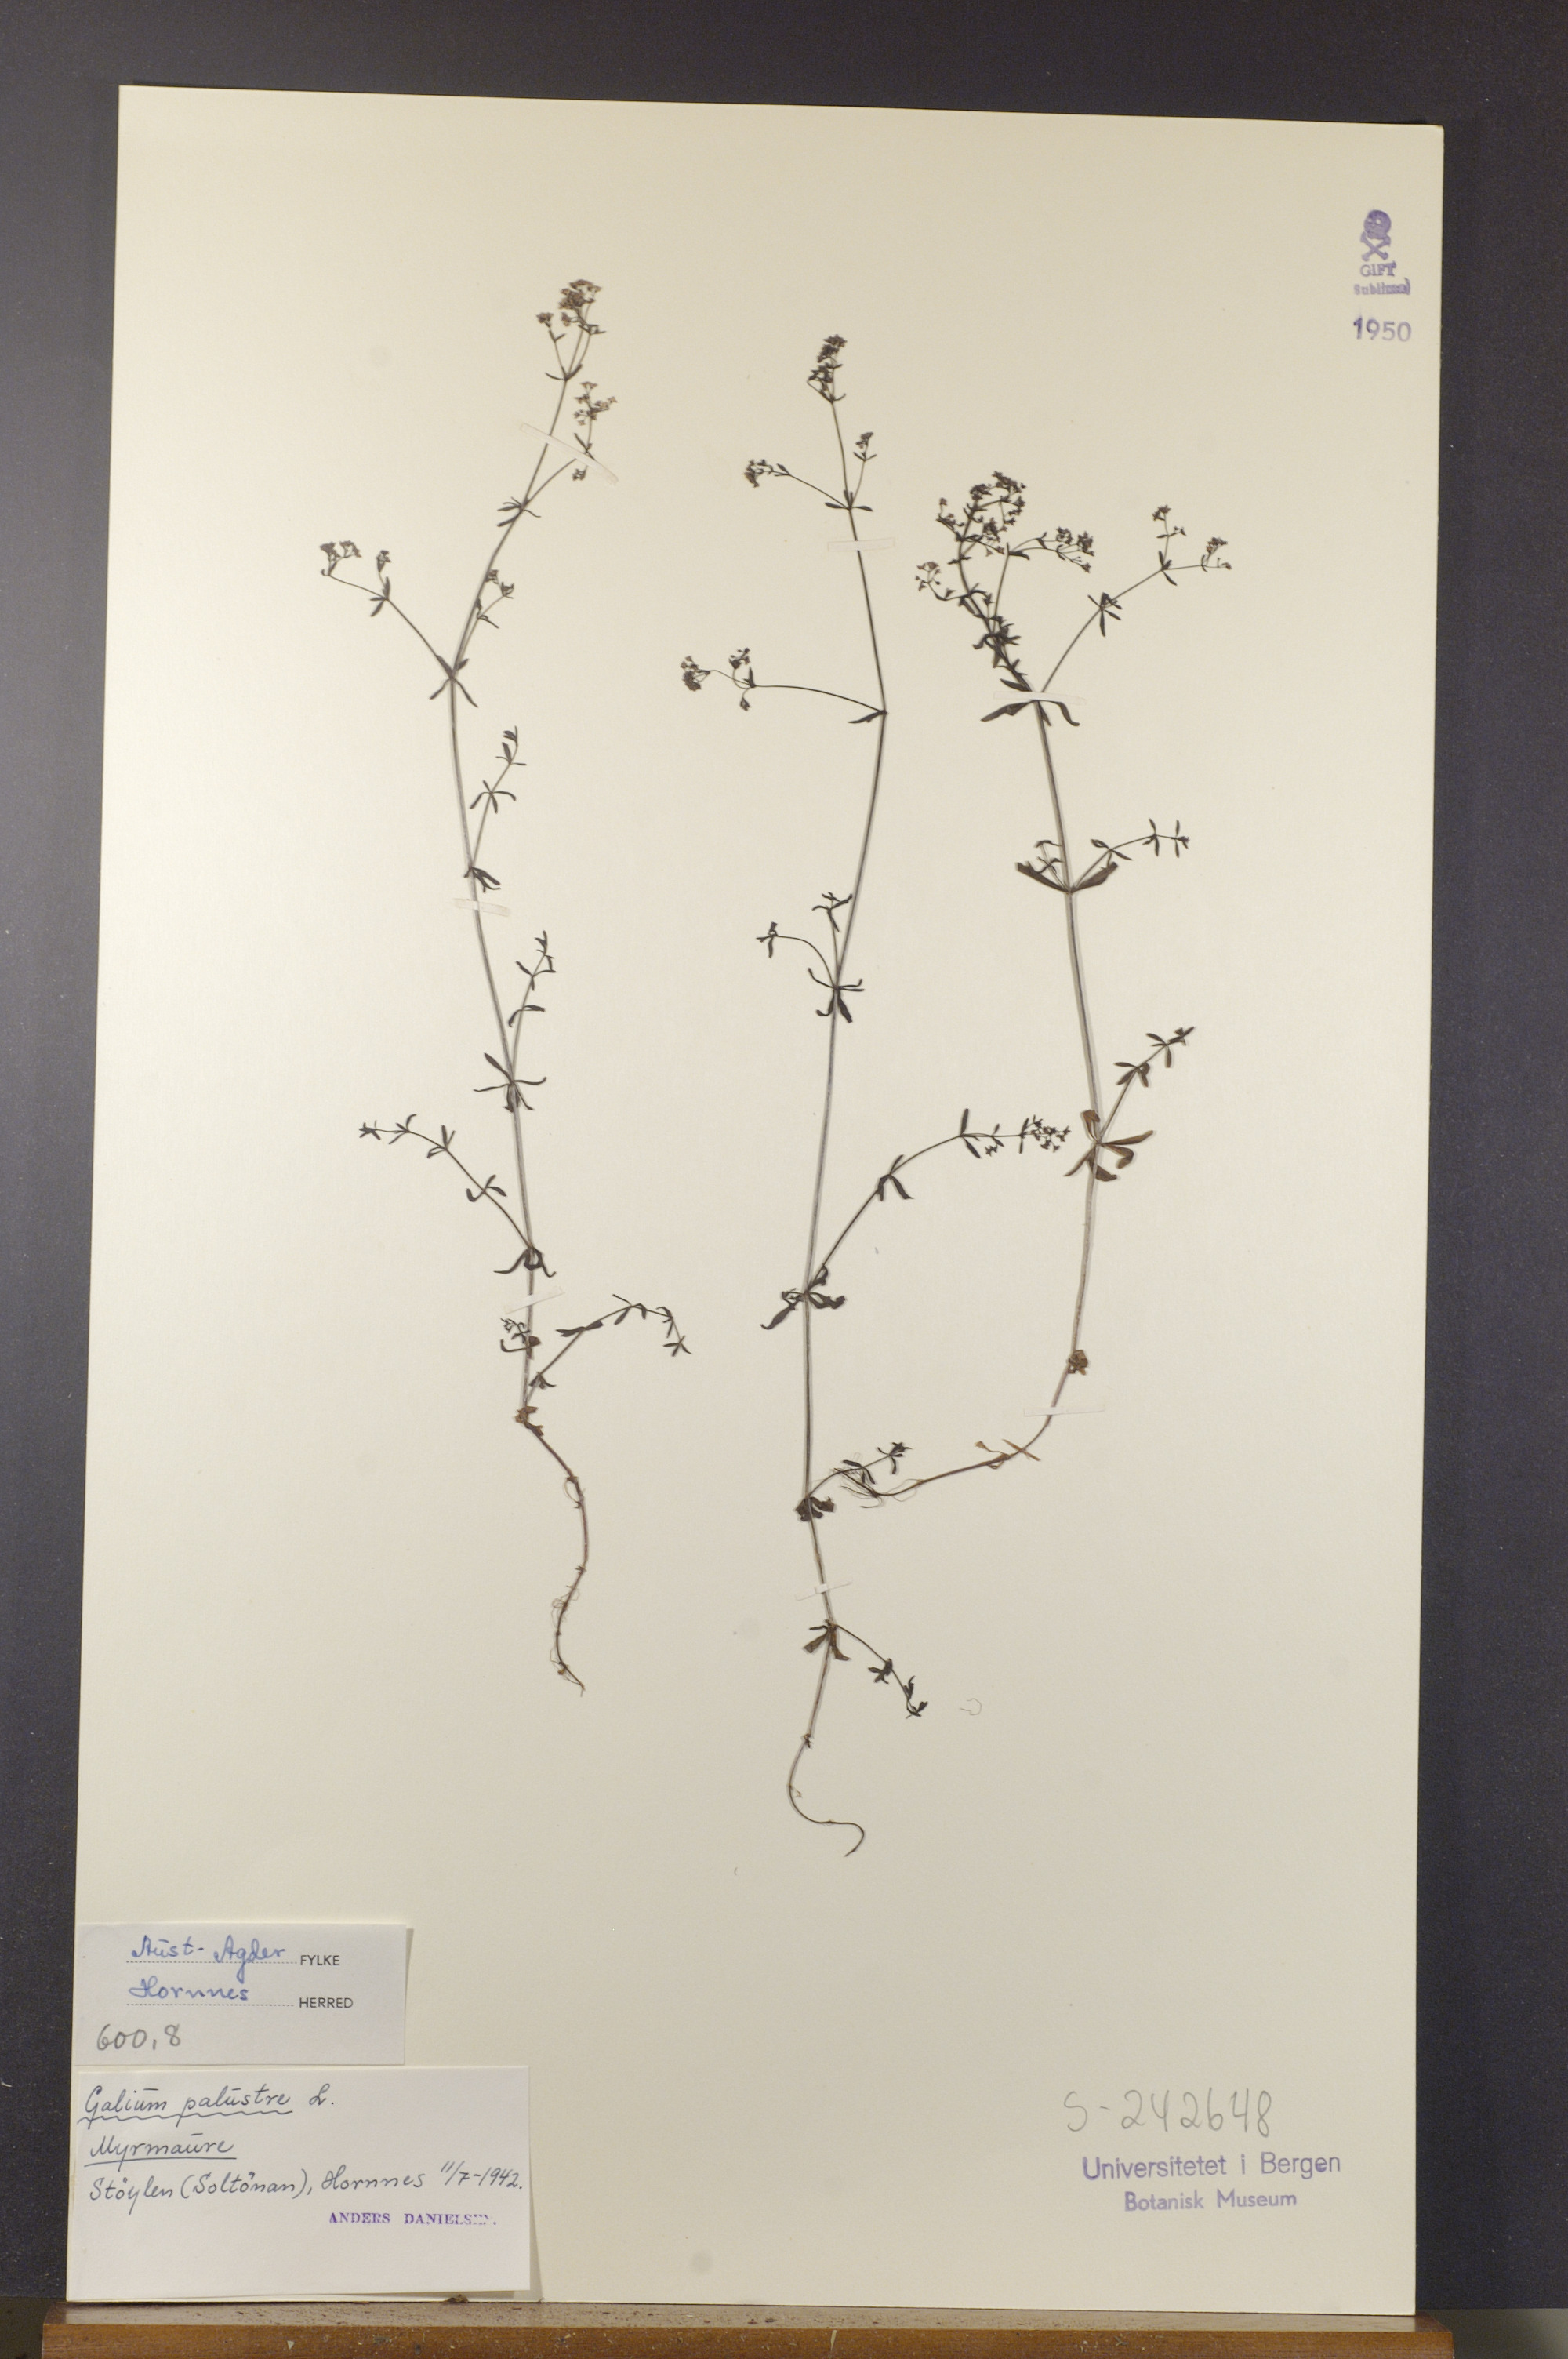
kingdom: Plantae
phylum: Tracheophyta
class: Magnoliopsida
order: Gentianales
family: Rubiaceae
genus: Galium
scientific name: Galium palustre
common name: Common marsh-bedstraw
